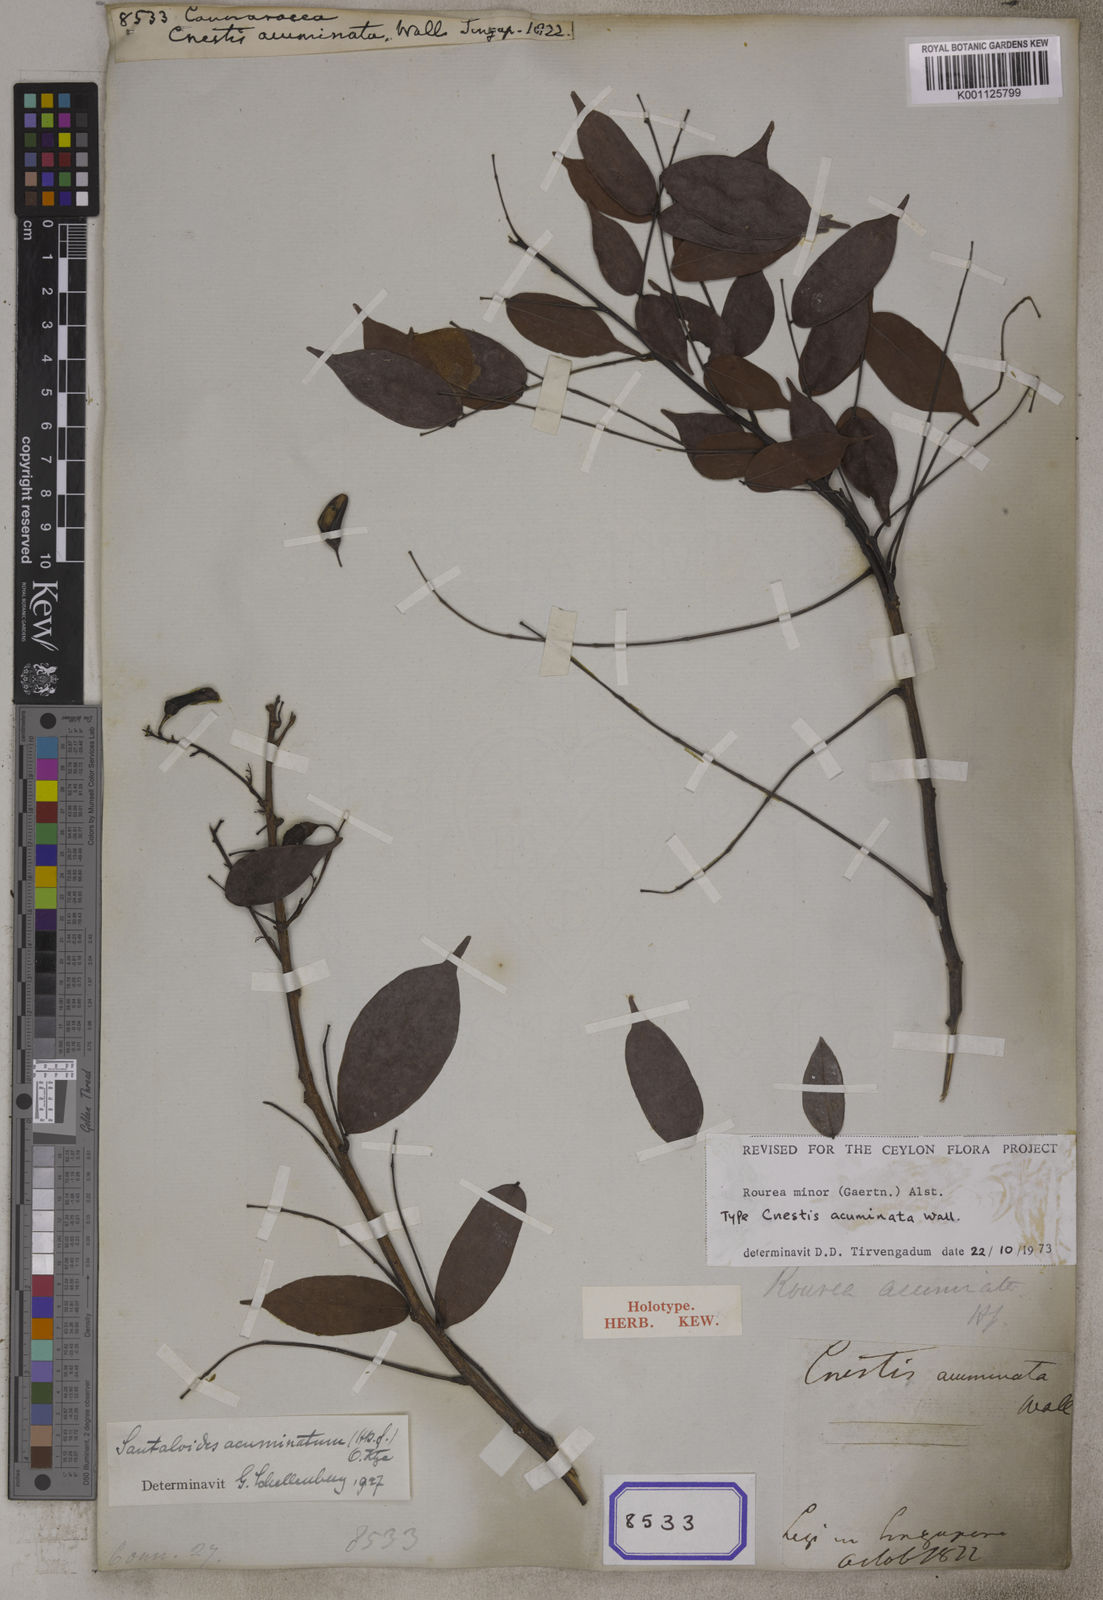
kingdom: Plantae
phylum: Tracheophyta
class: Magnoliopsida
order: Oxalidales
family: Connaraceae
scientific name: Connaraceae
